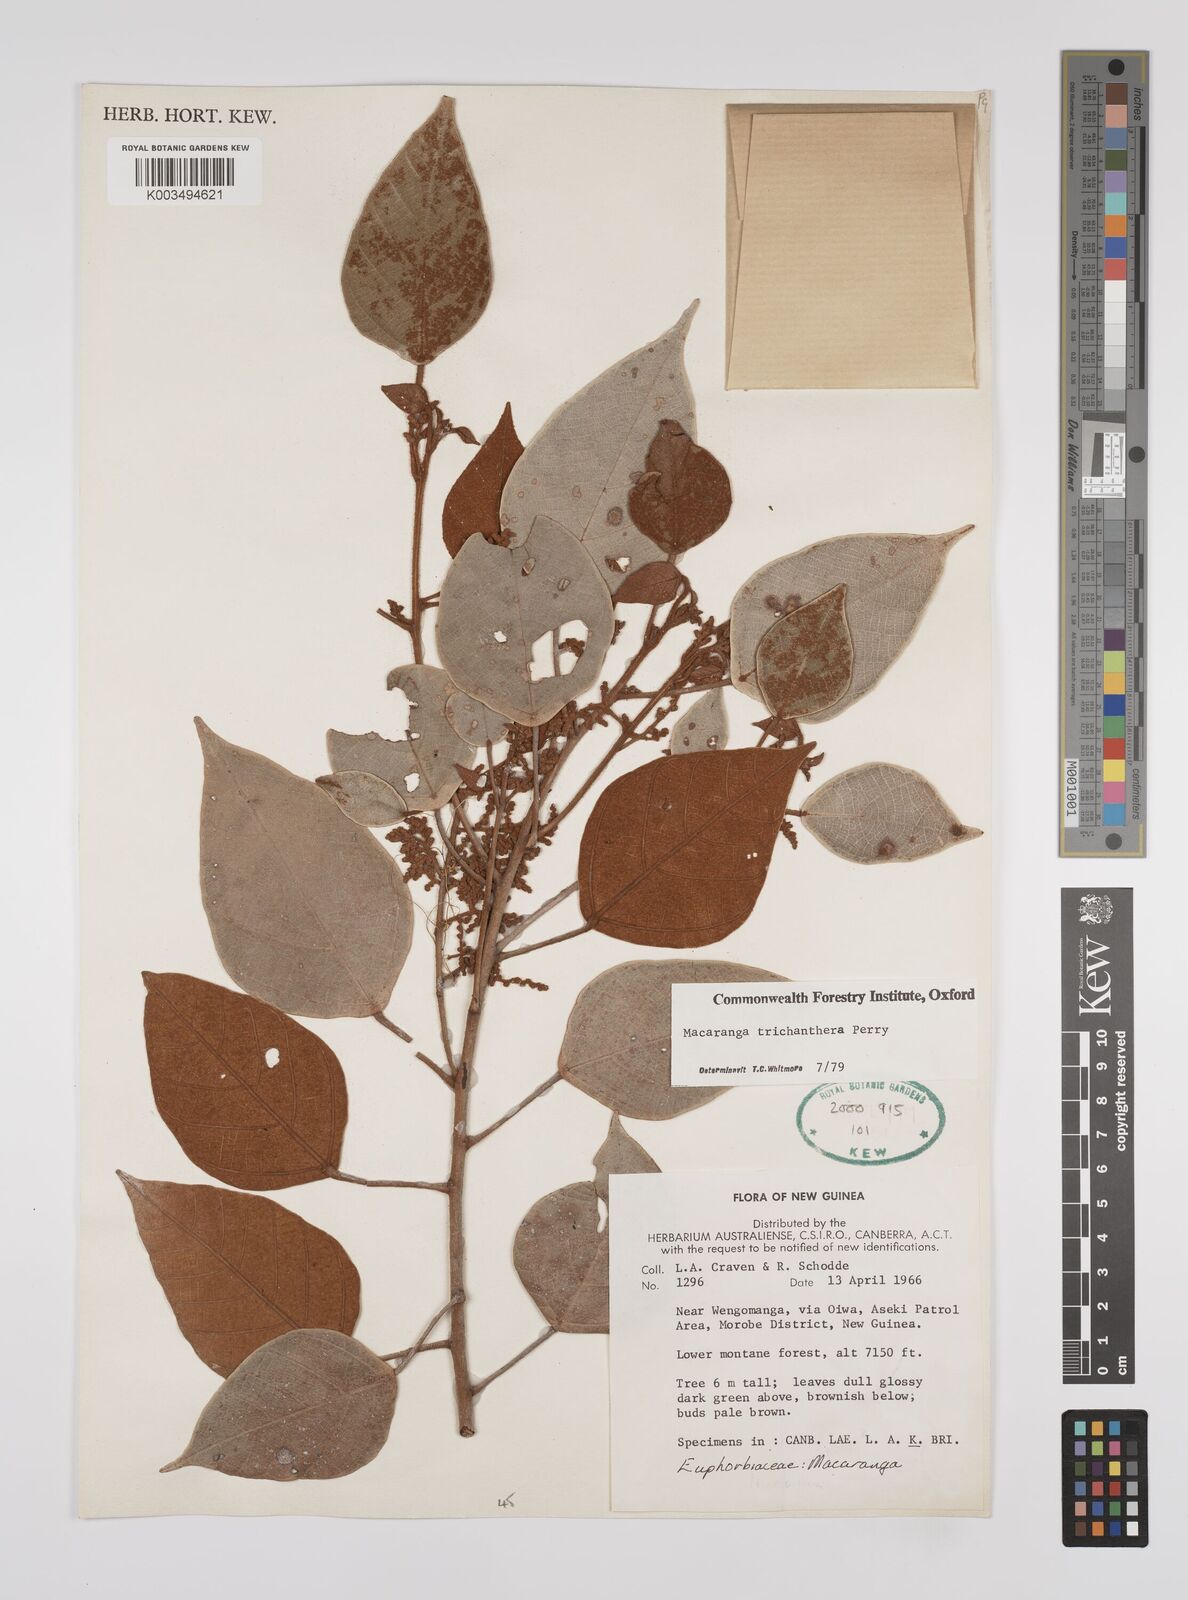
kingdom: Plantae
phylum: Tracheophyta
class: Magnoliopsida
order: Malpighiales
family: Euphorbiaceae
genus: Macaranga
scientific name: Macaranga trichanthera
